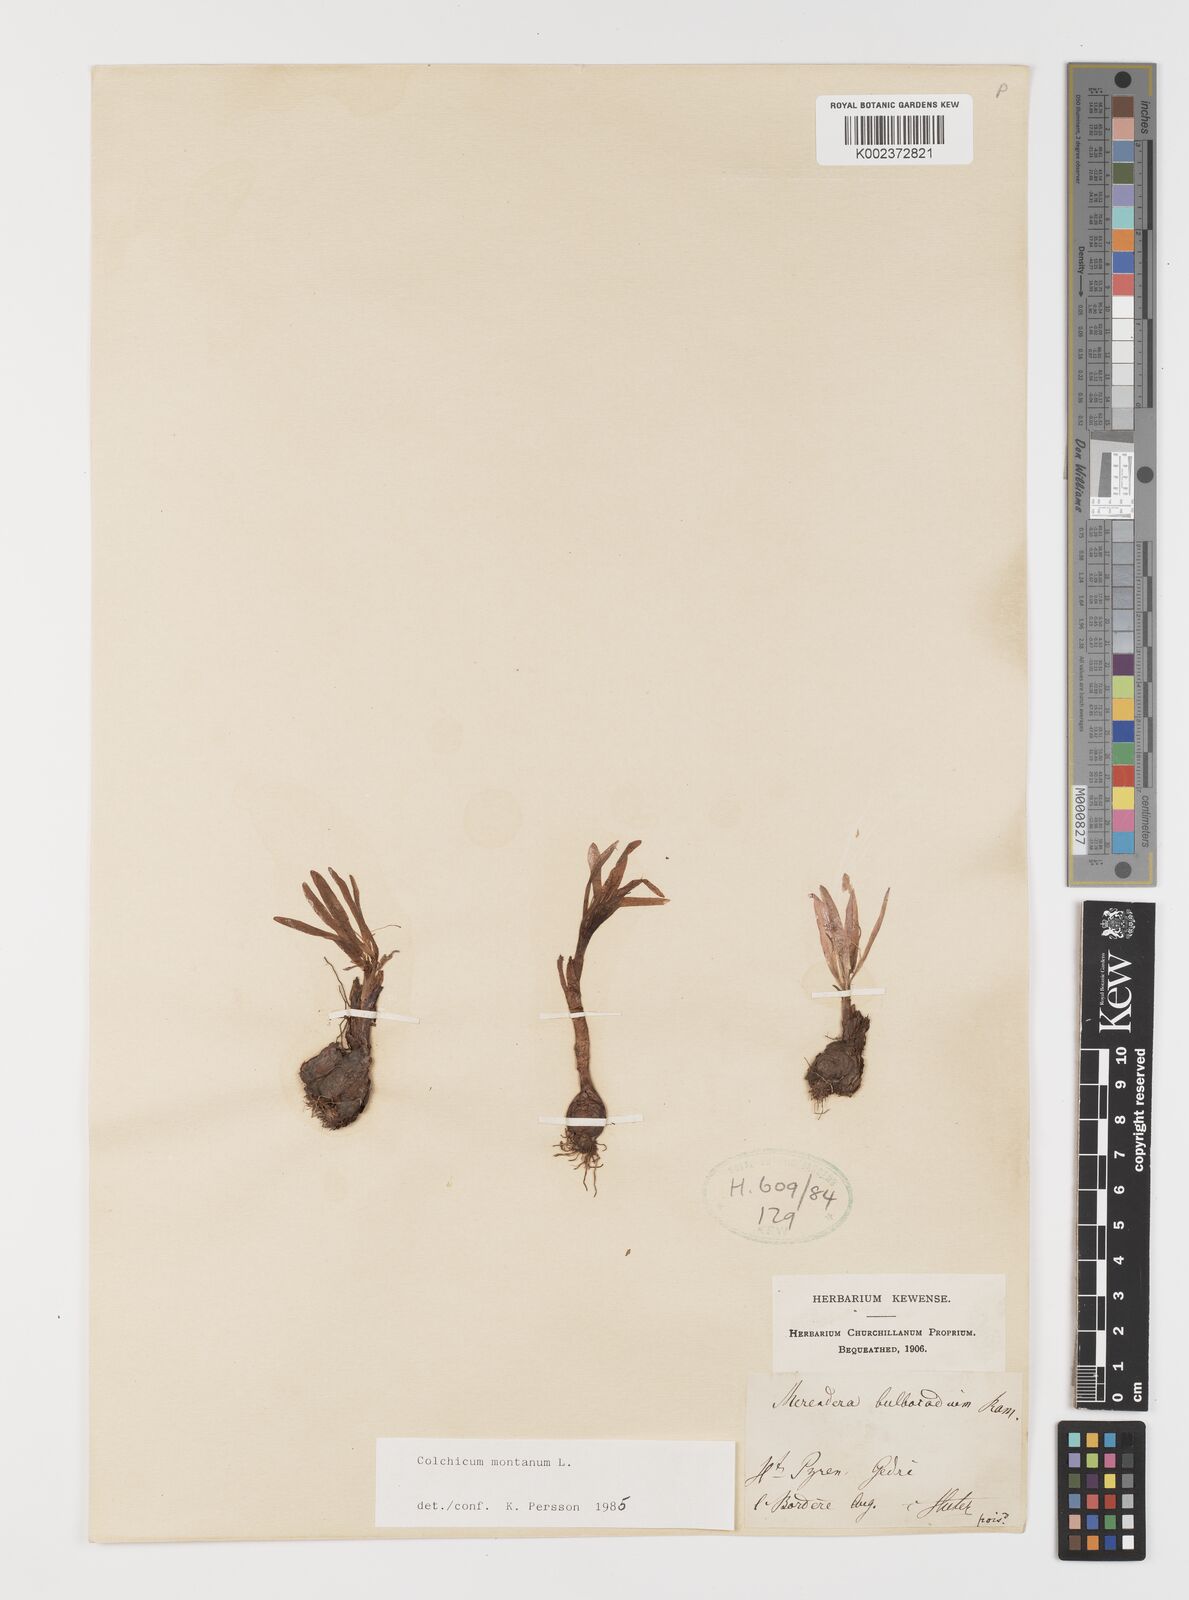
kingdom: Plantae
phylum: Tracheophyta
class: Liliopsida
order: Liliales
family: Colchicaceae
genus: Colchicum
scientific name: Colchicum montanum
